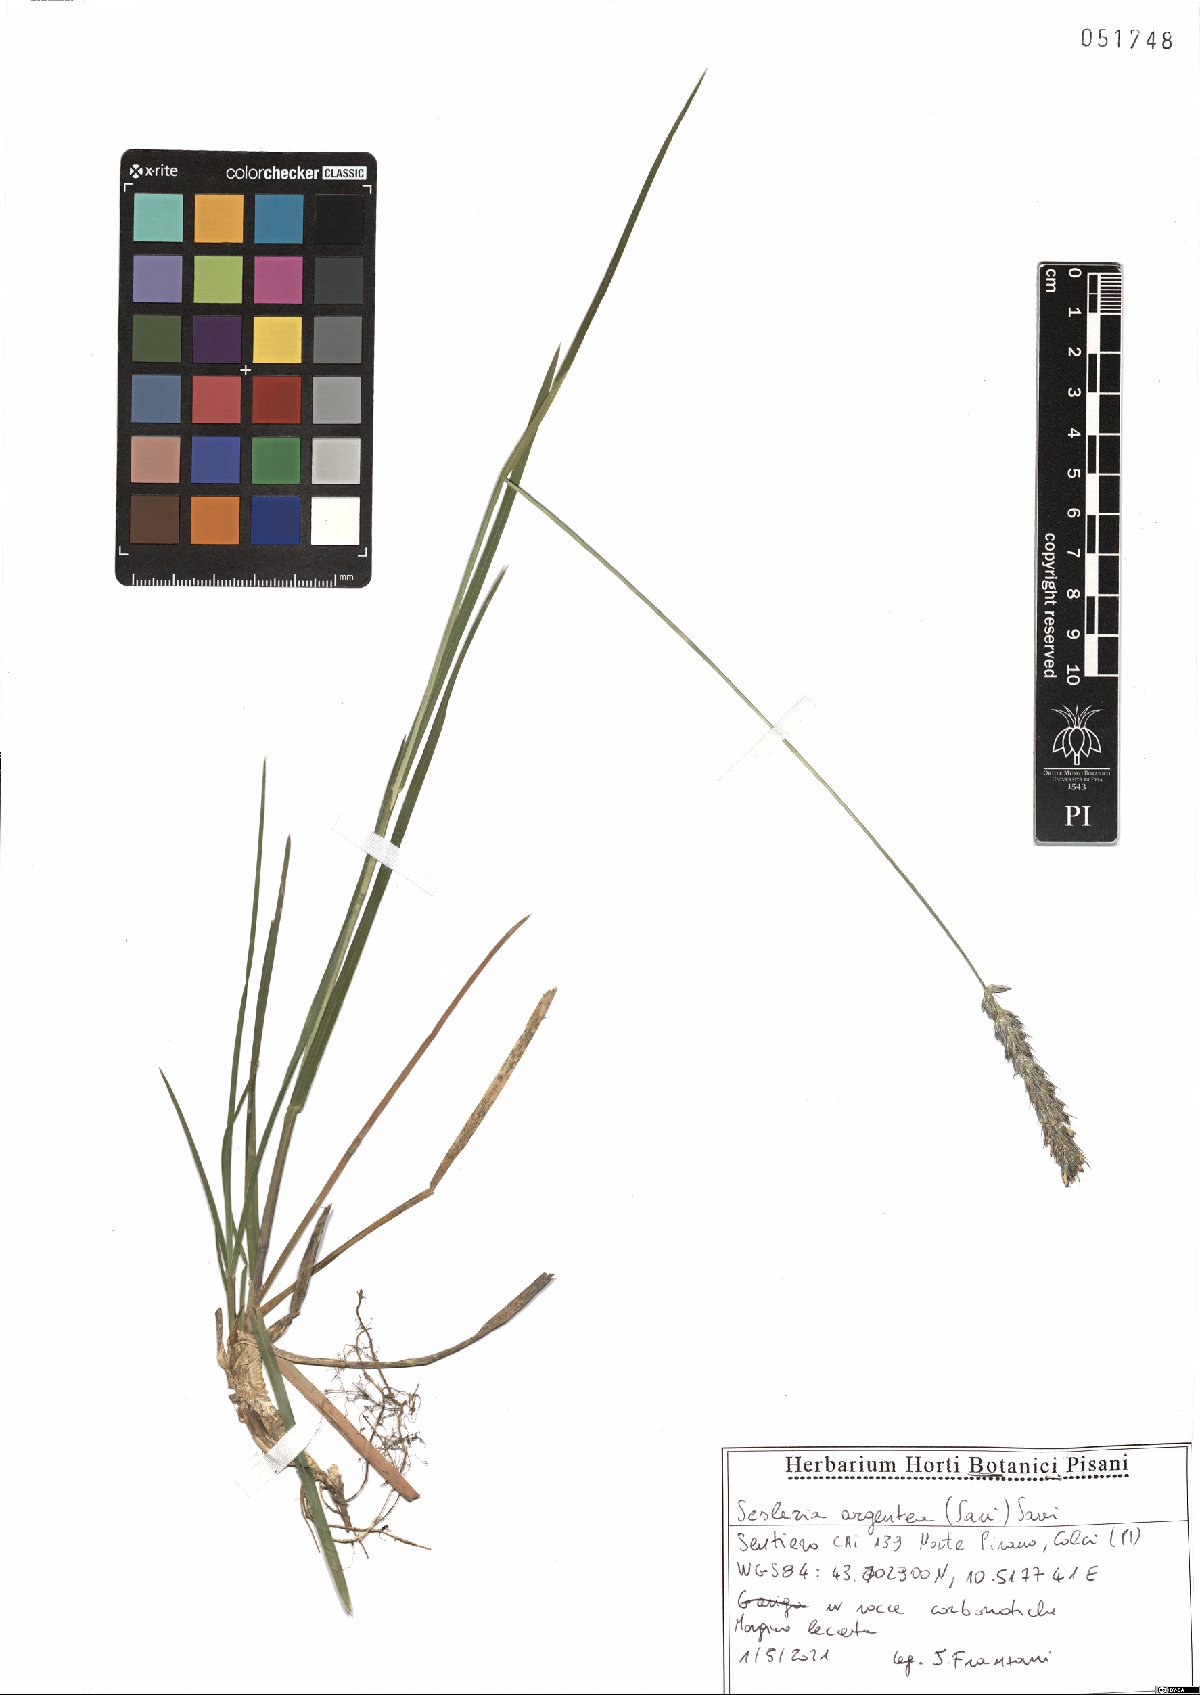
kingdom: Plantae
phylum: Tracheophyta
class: Liliopsida
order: Poales
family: Poaceae
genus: Sesleria
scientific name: Sesleria argentea
